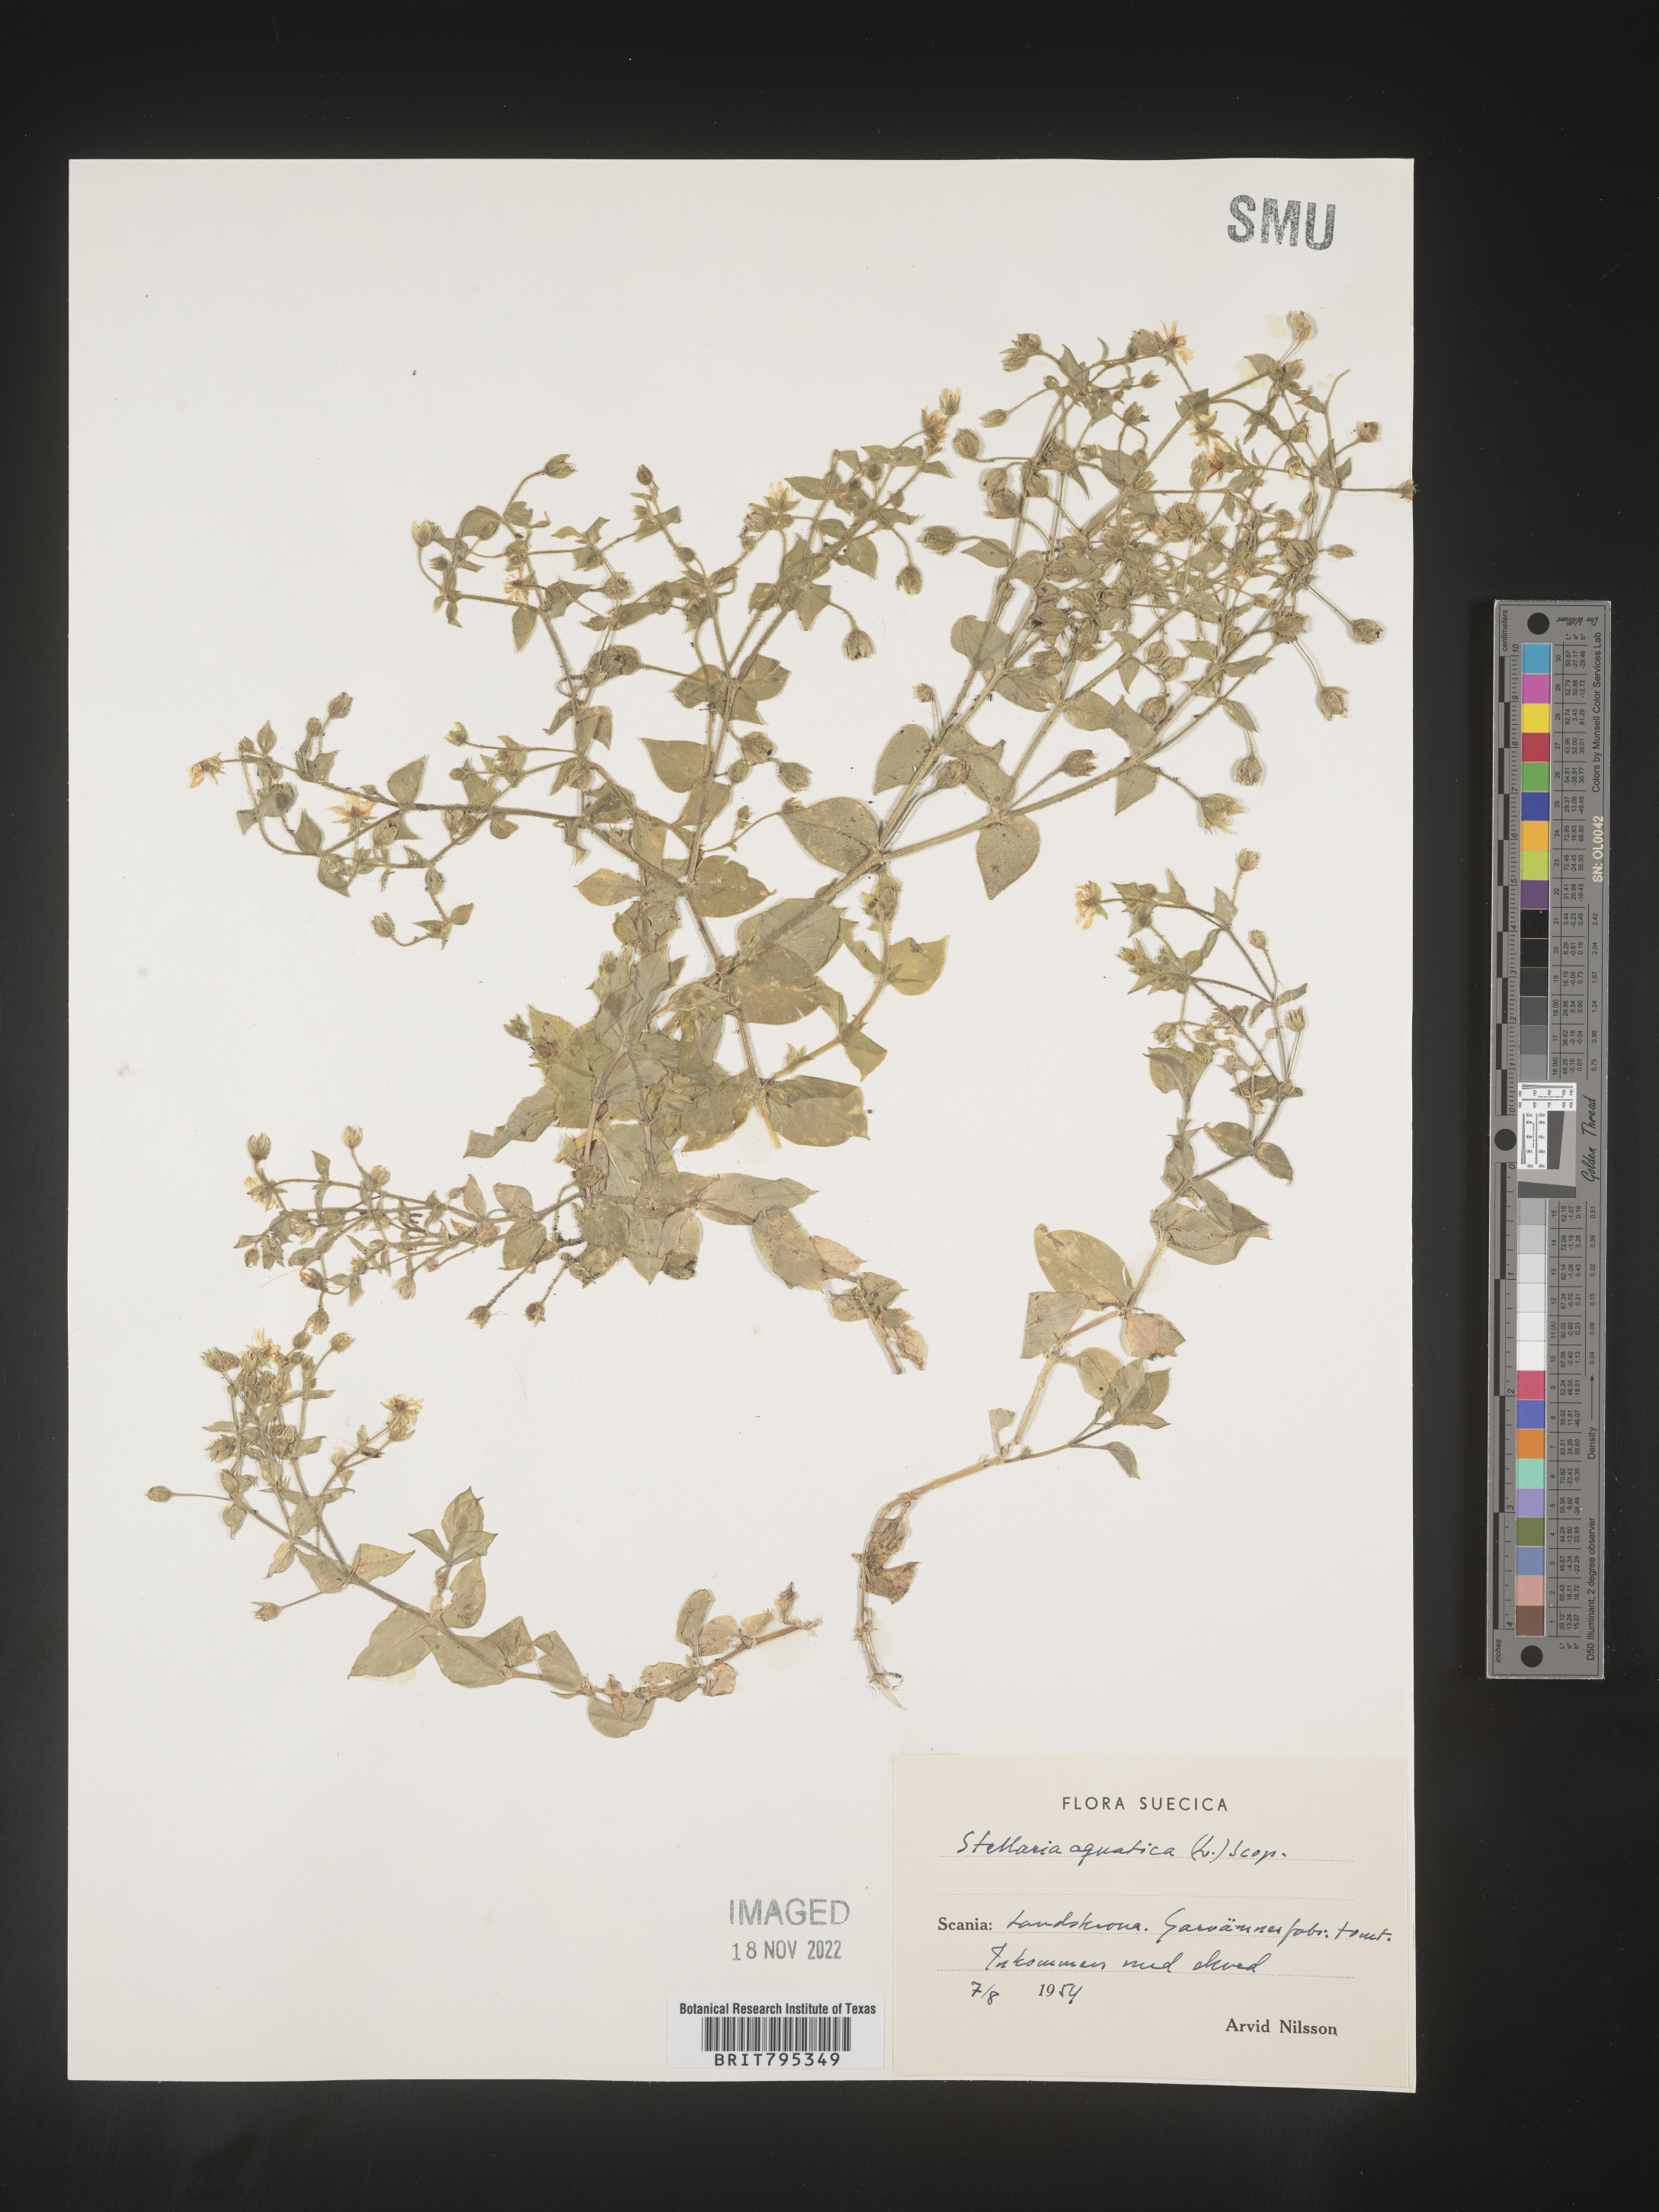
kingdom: Plantae
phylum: Tracheophyta
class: Magnoliopsida
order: Caryophyllales
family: Caryophyllaceae
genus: Stellaria
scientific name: Stellaria
